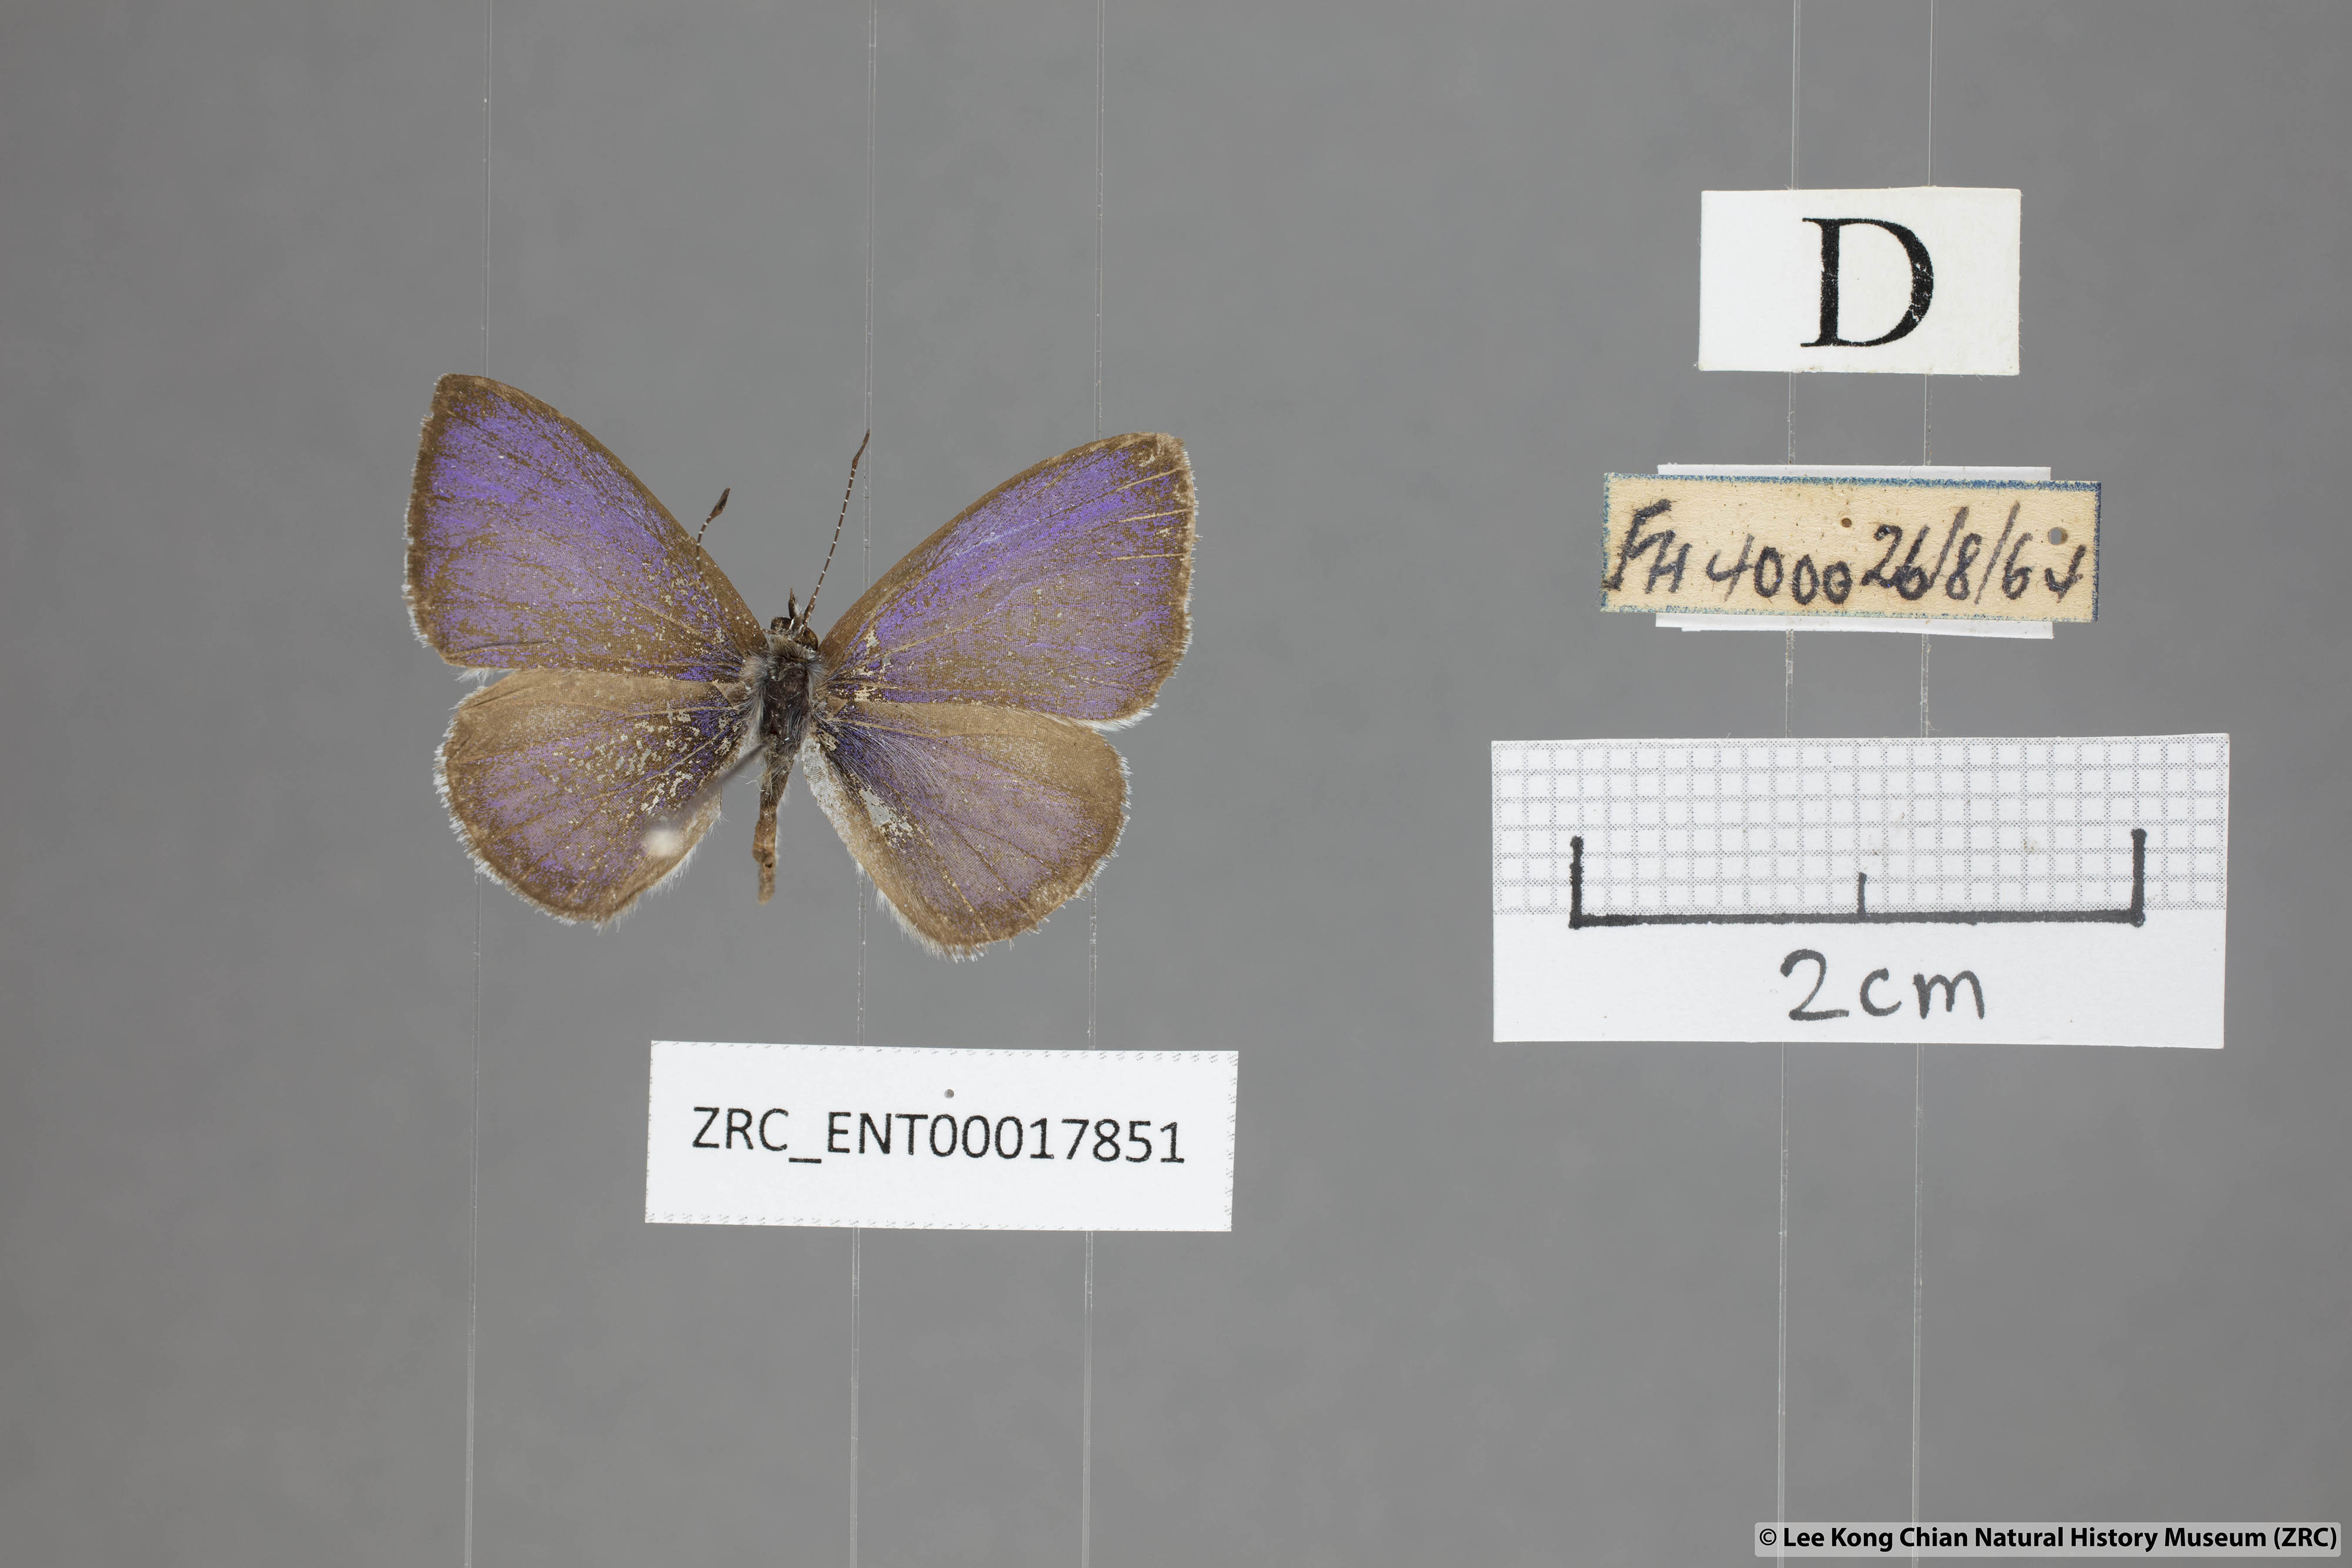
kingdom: Animalia
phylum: Arthropoda
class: Insecta
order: Lepidoptera
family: Lycaenidae
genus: Udara
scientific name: Udara
